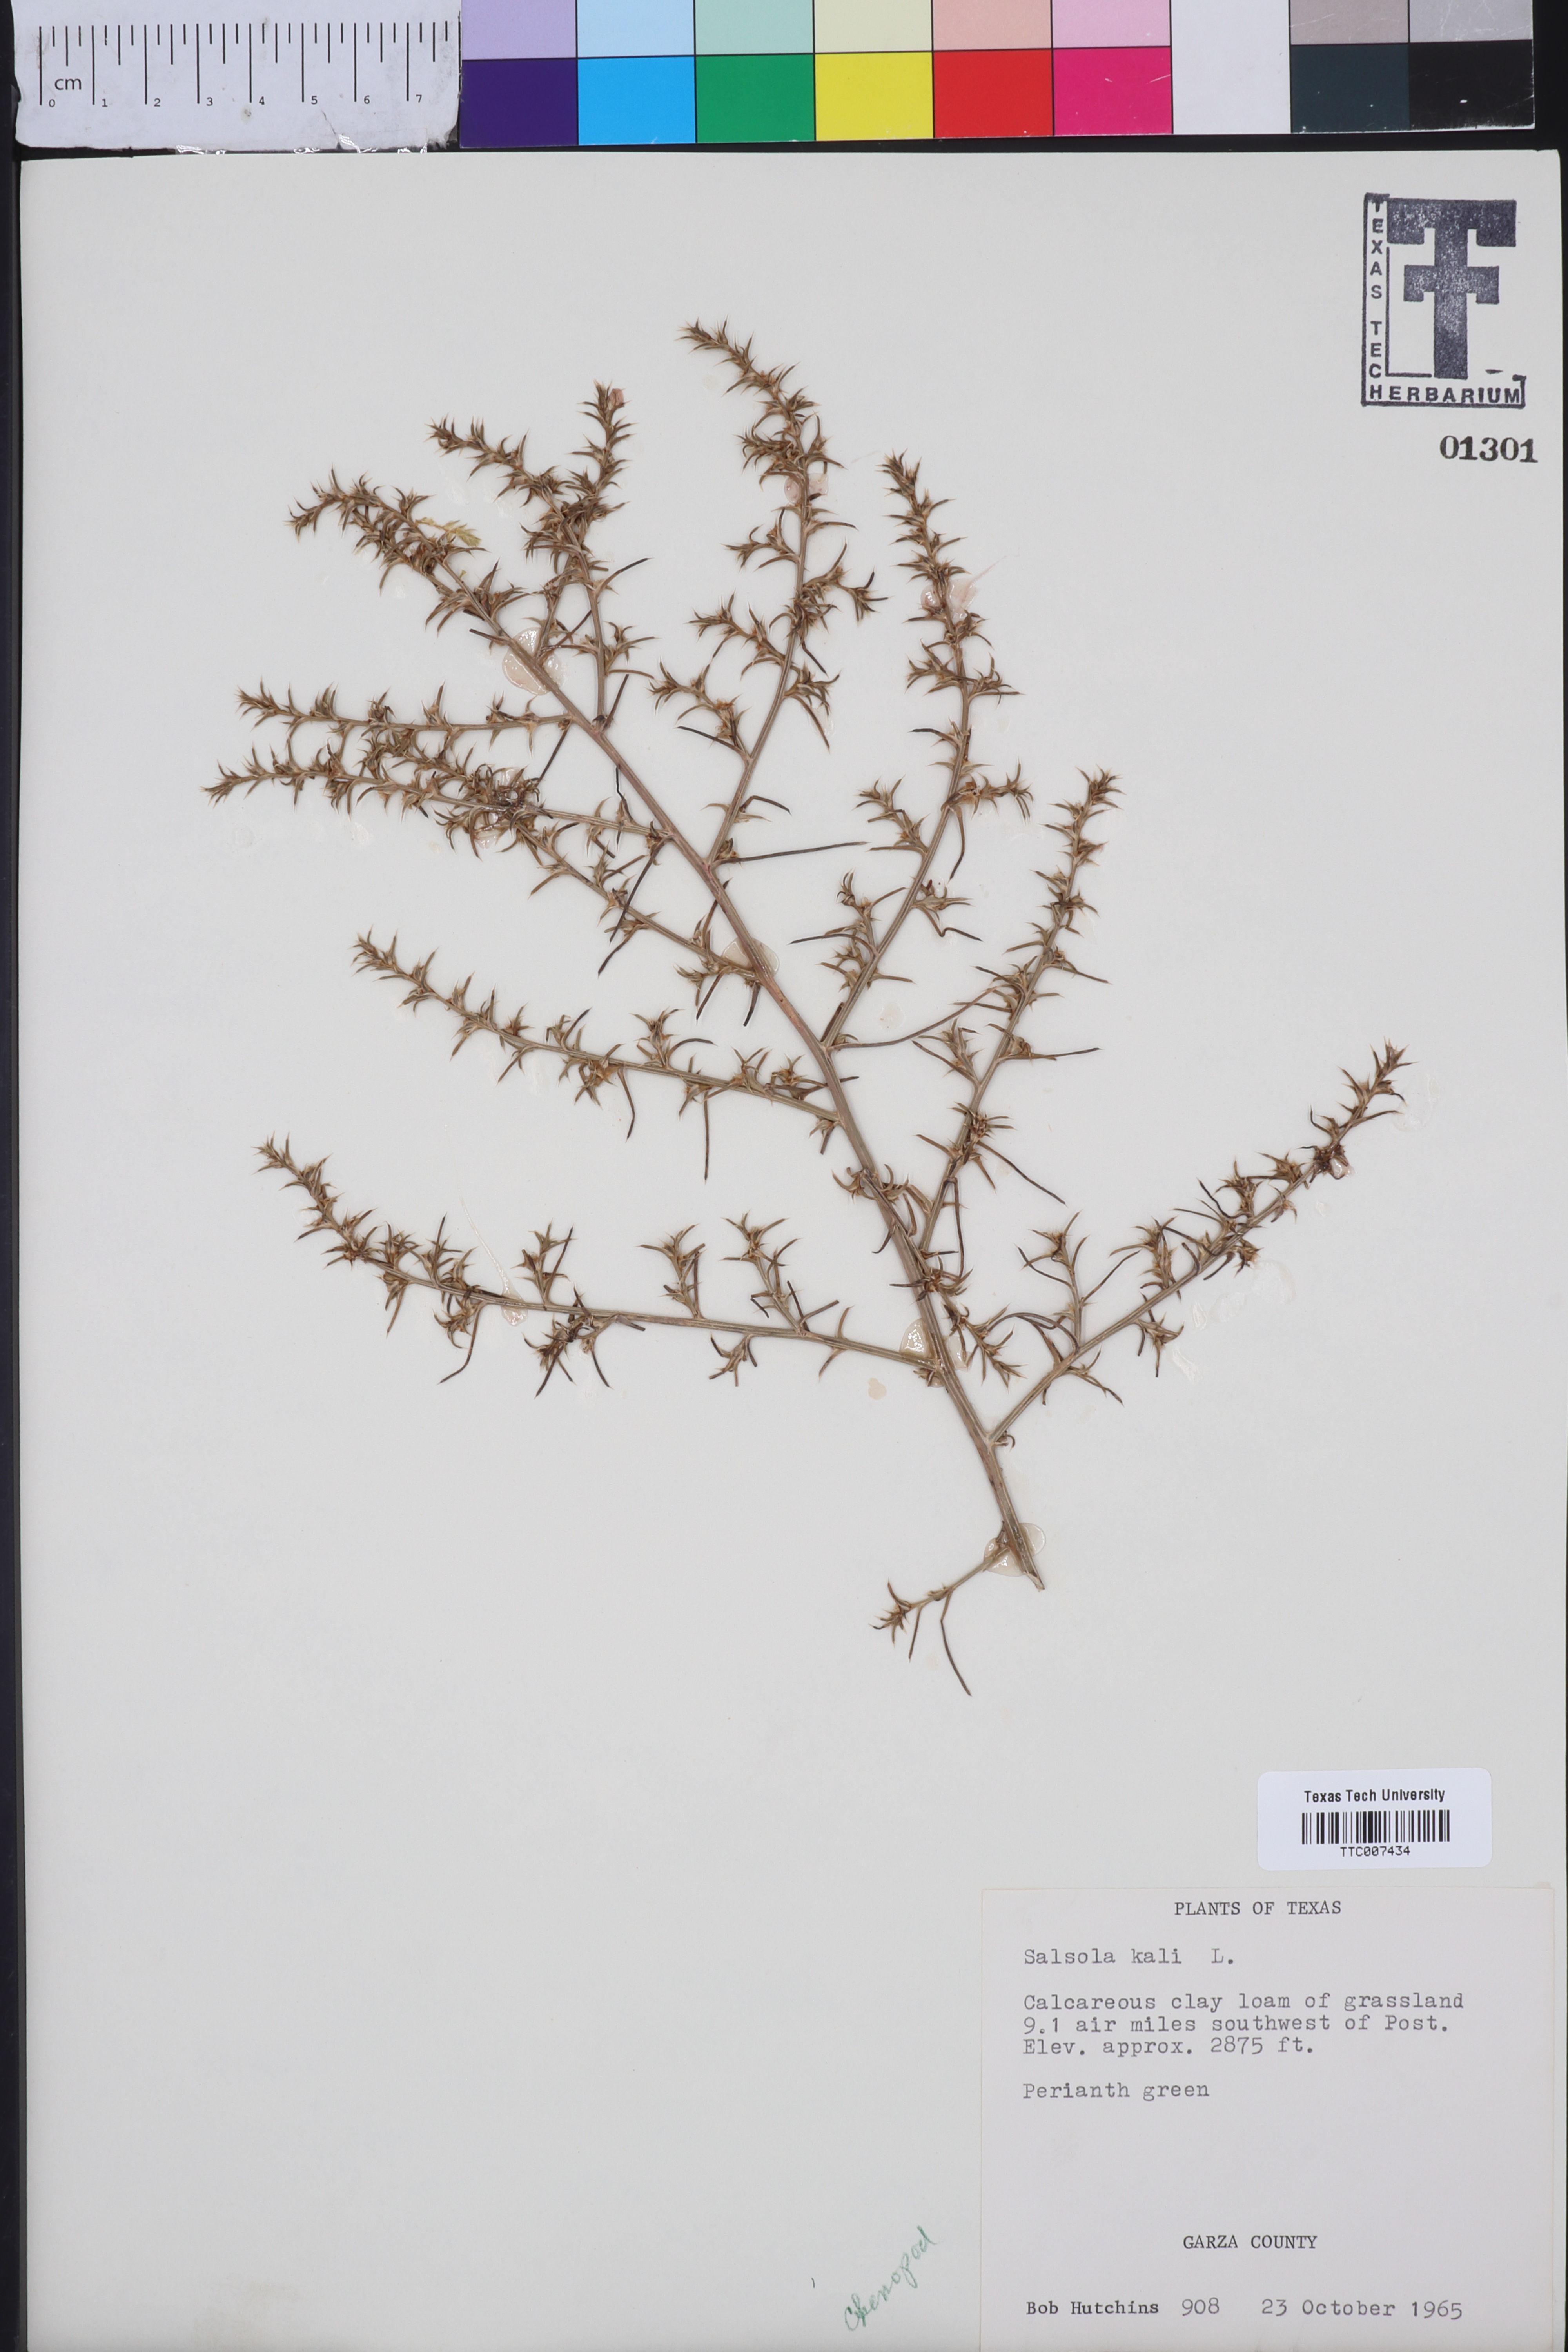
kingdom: Plantae
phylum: Tracheophyta
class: Magnoliopsida
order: Caryophyllales
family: Amaranthaceae
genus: Salsola
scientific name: Salsola kali
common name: Saltwort
